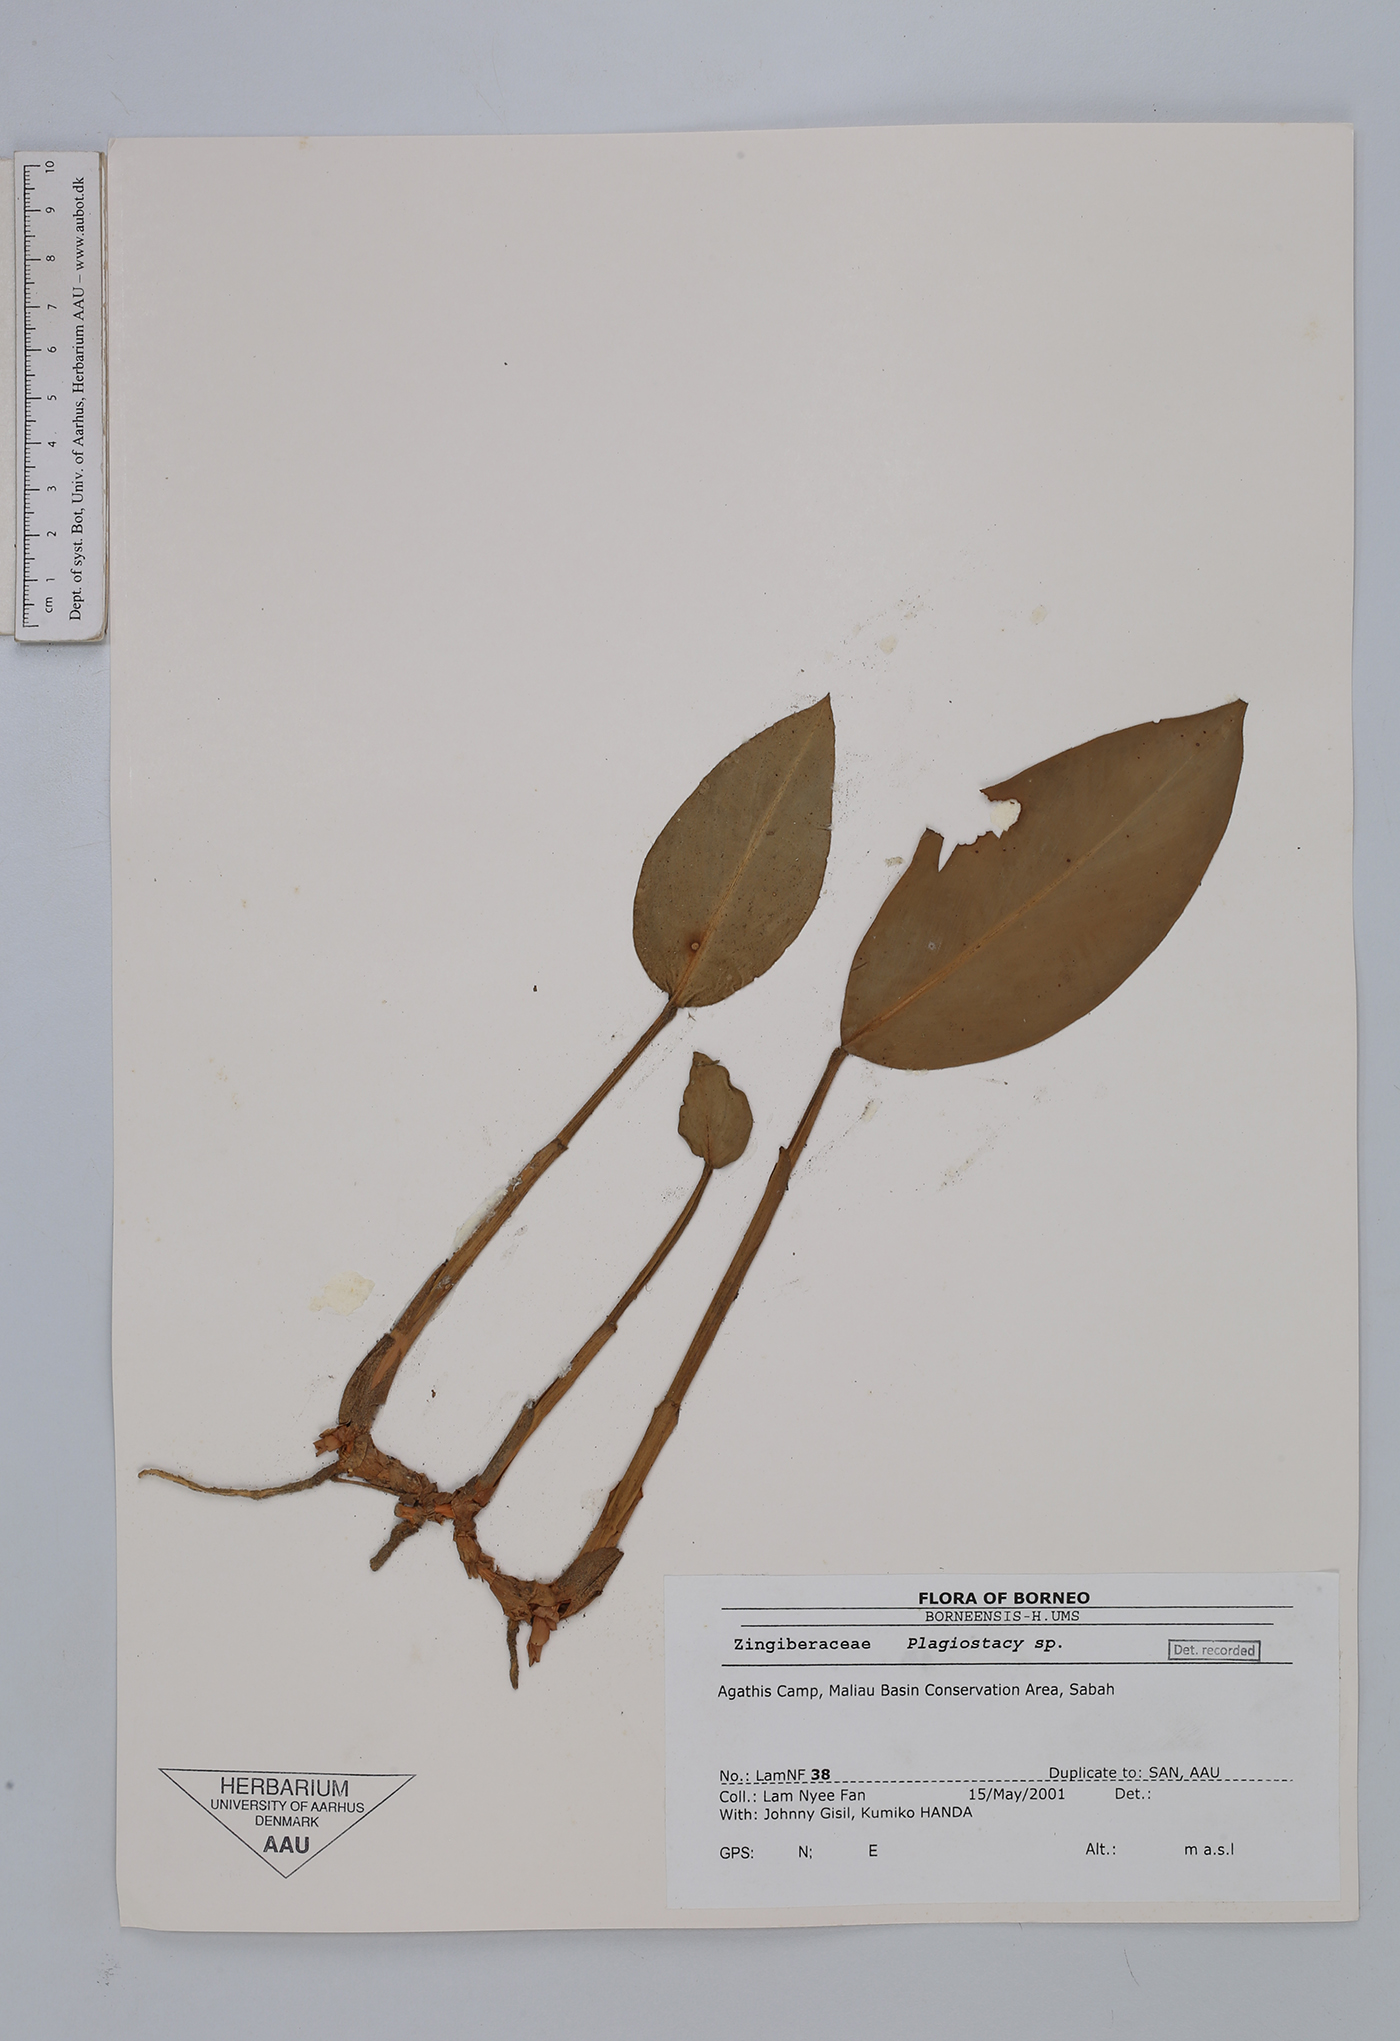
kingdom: Plantae
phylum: Tracheophyta
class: Liliopsida
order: Zingiberales
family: Zingiberaceae
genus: Plagiostachys
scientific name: Plagiostachys
